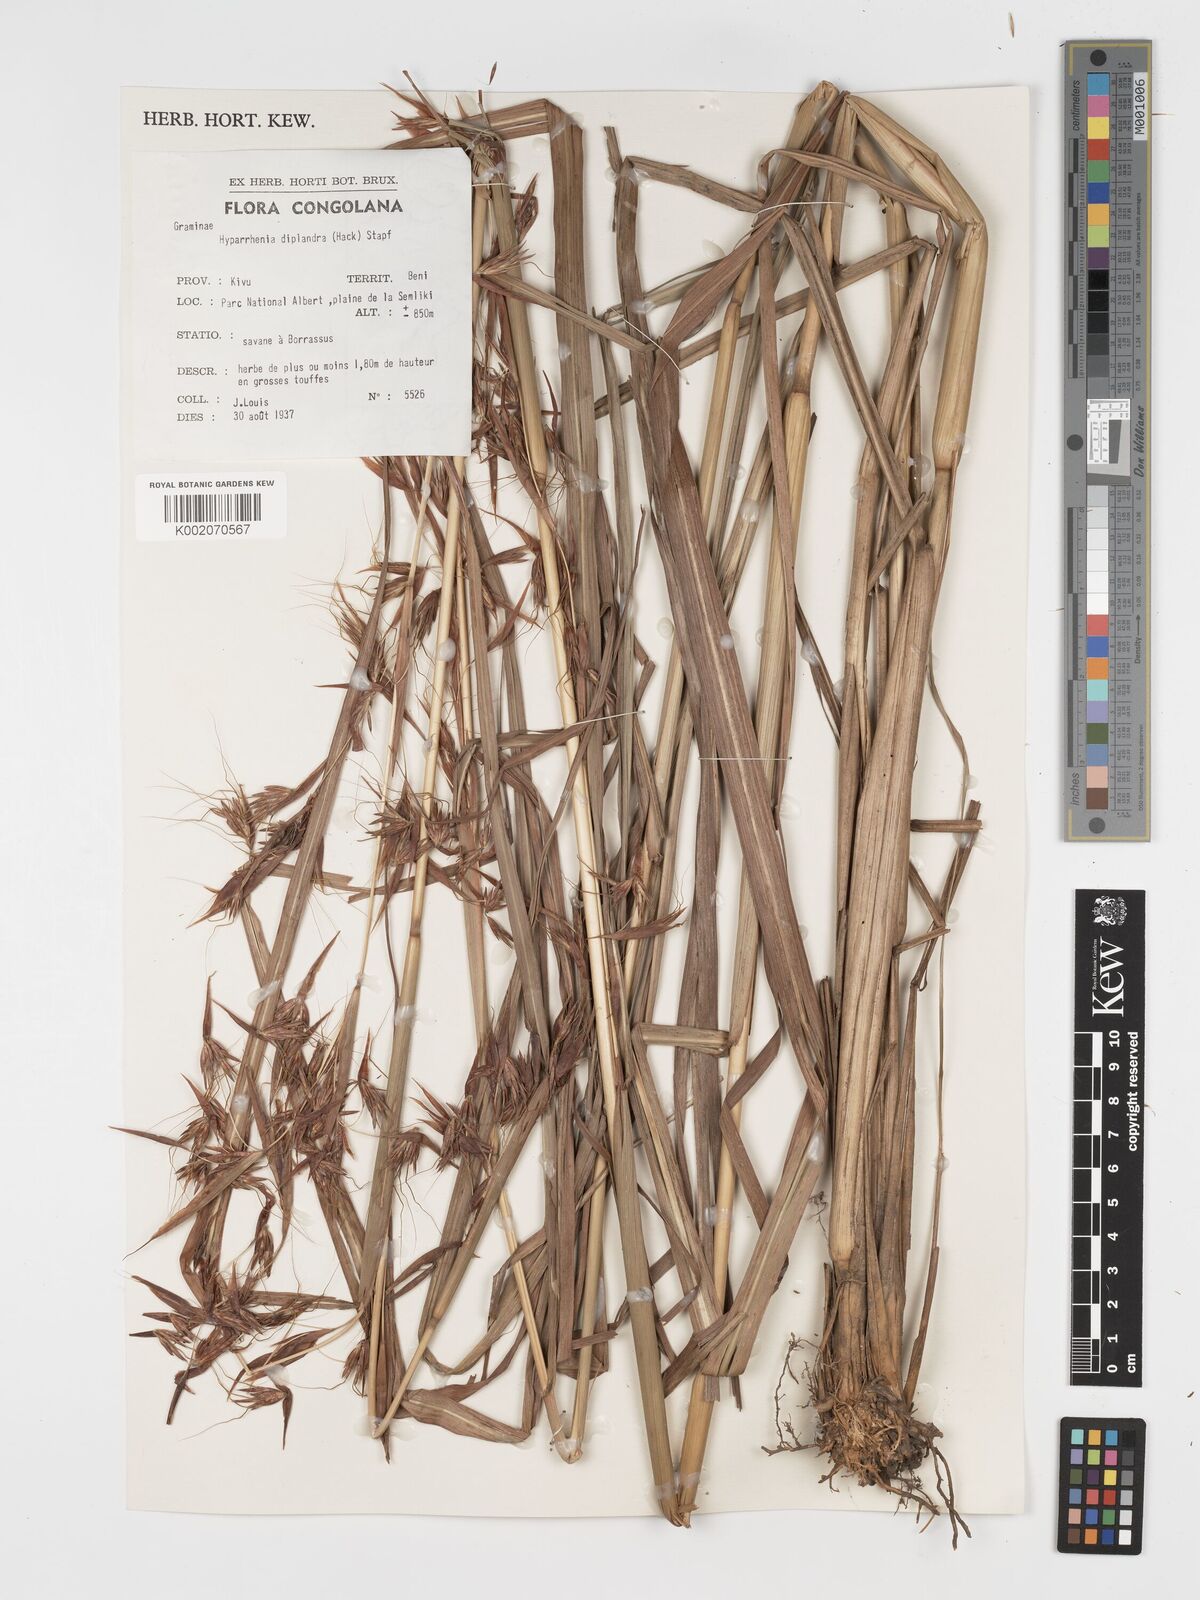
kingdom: Plantae
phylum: Tracheophyta
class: Liliopsida
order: Poales
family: Poaceae
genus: Hyparrhenia
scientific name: Hyparrhenia diplandra
